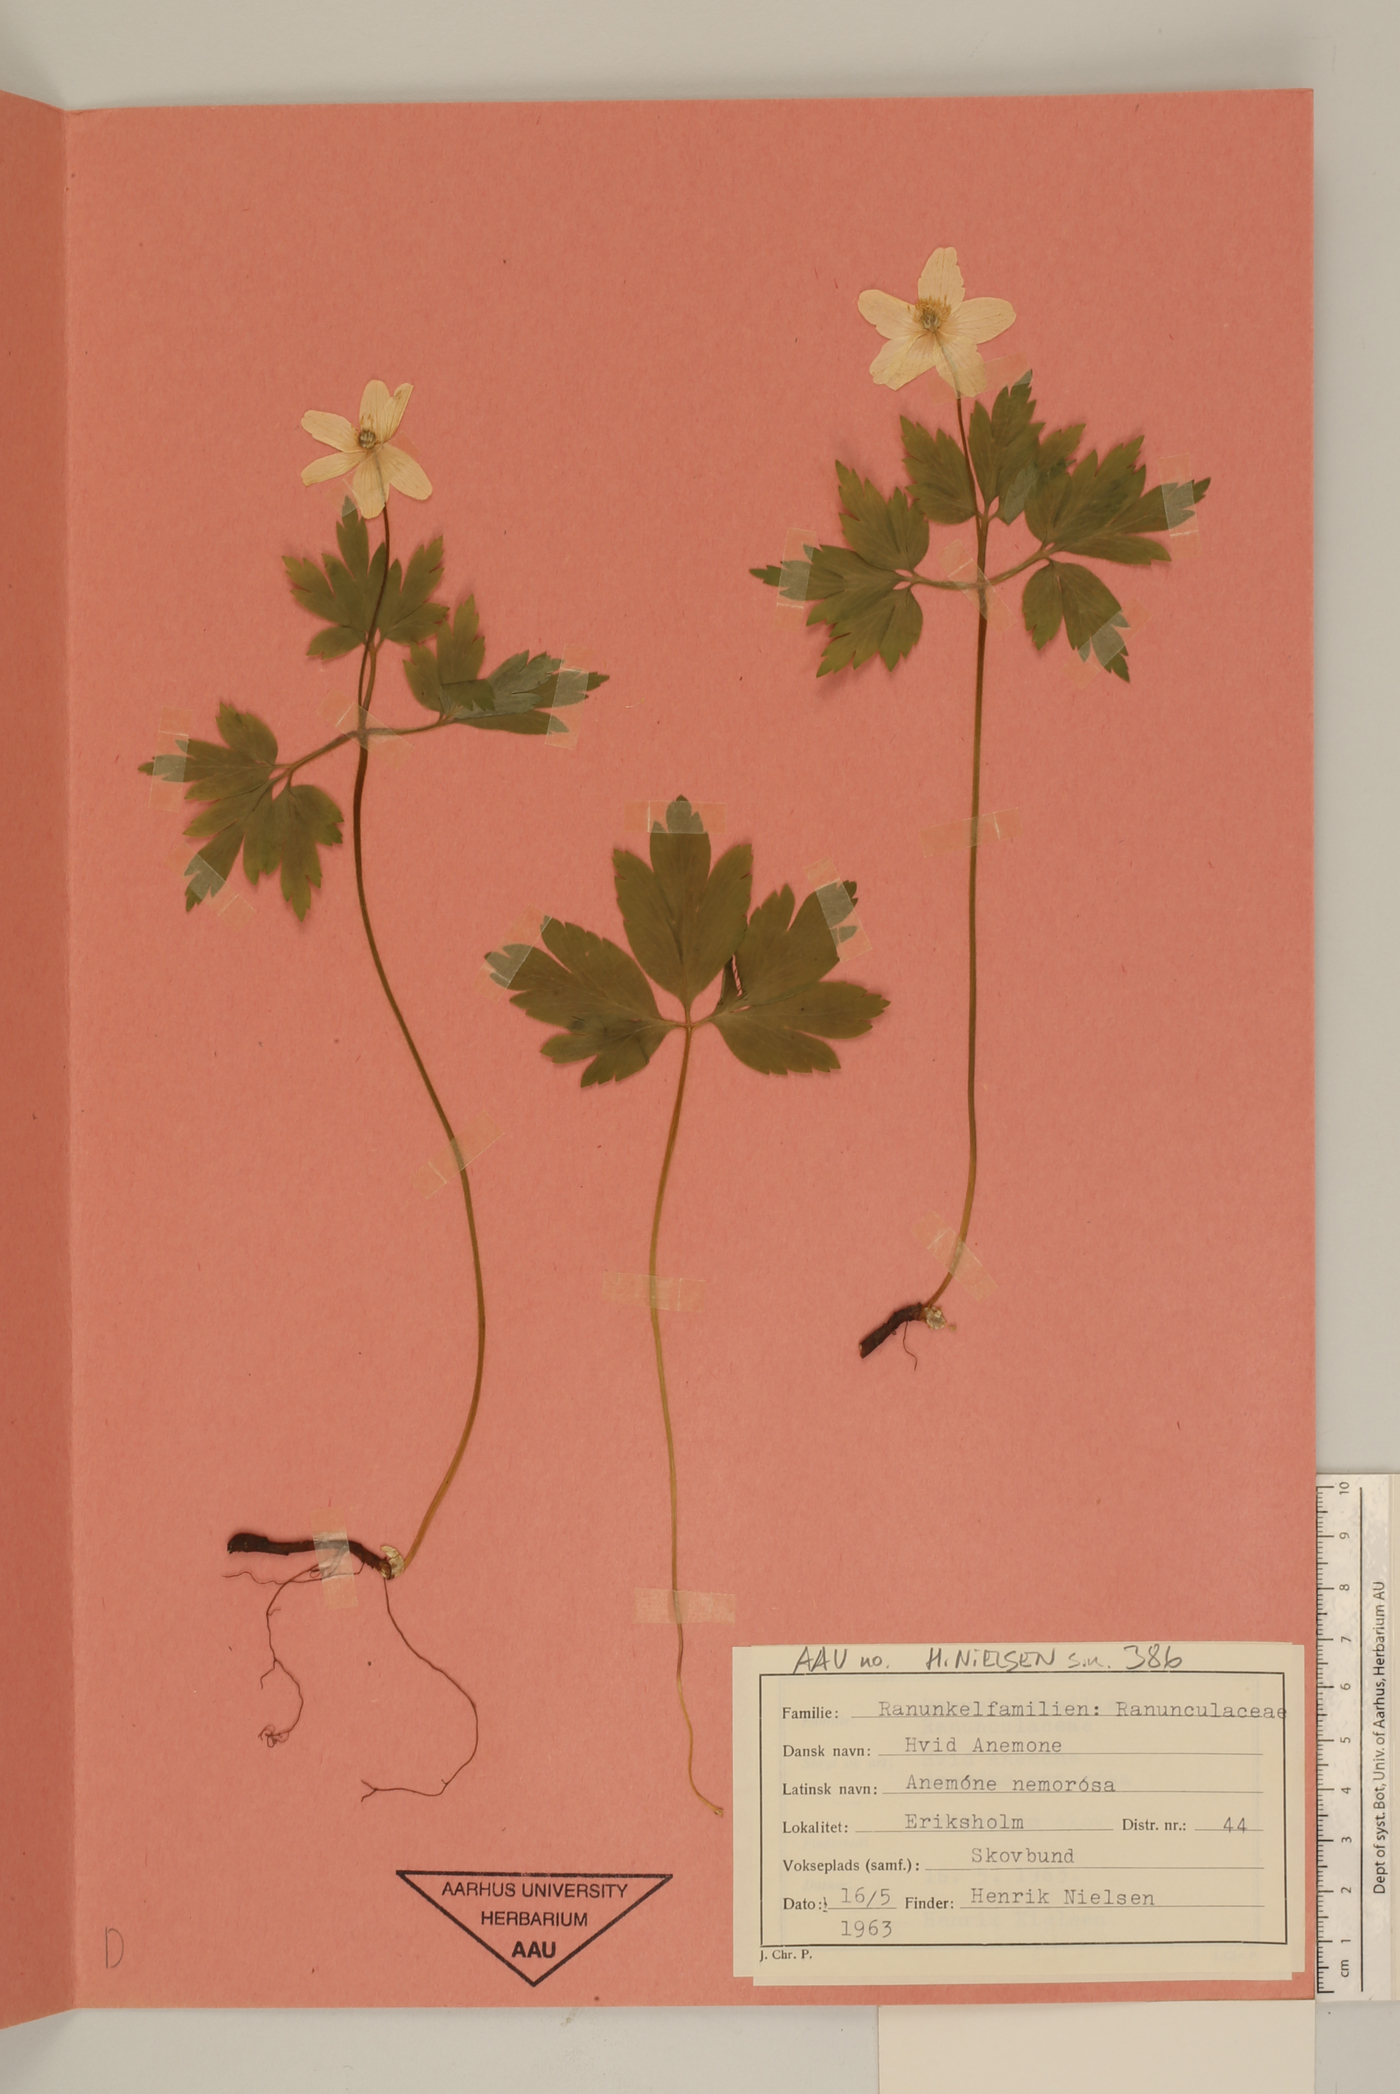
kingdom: Plantae
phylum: Tracheophyta
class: Magnoliopsida
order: Ranunculales
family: Ranunculaceae
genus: Anemone
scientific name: Anemone nemorosa
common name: Wood anemone
